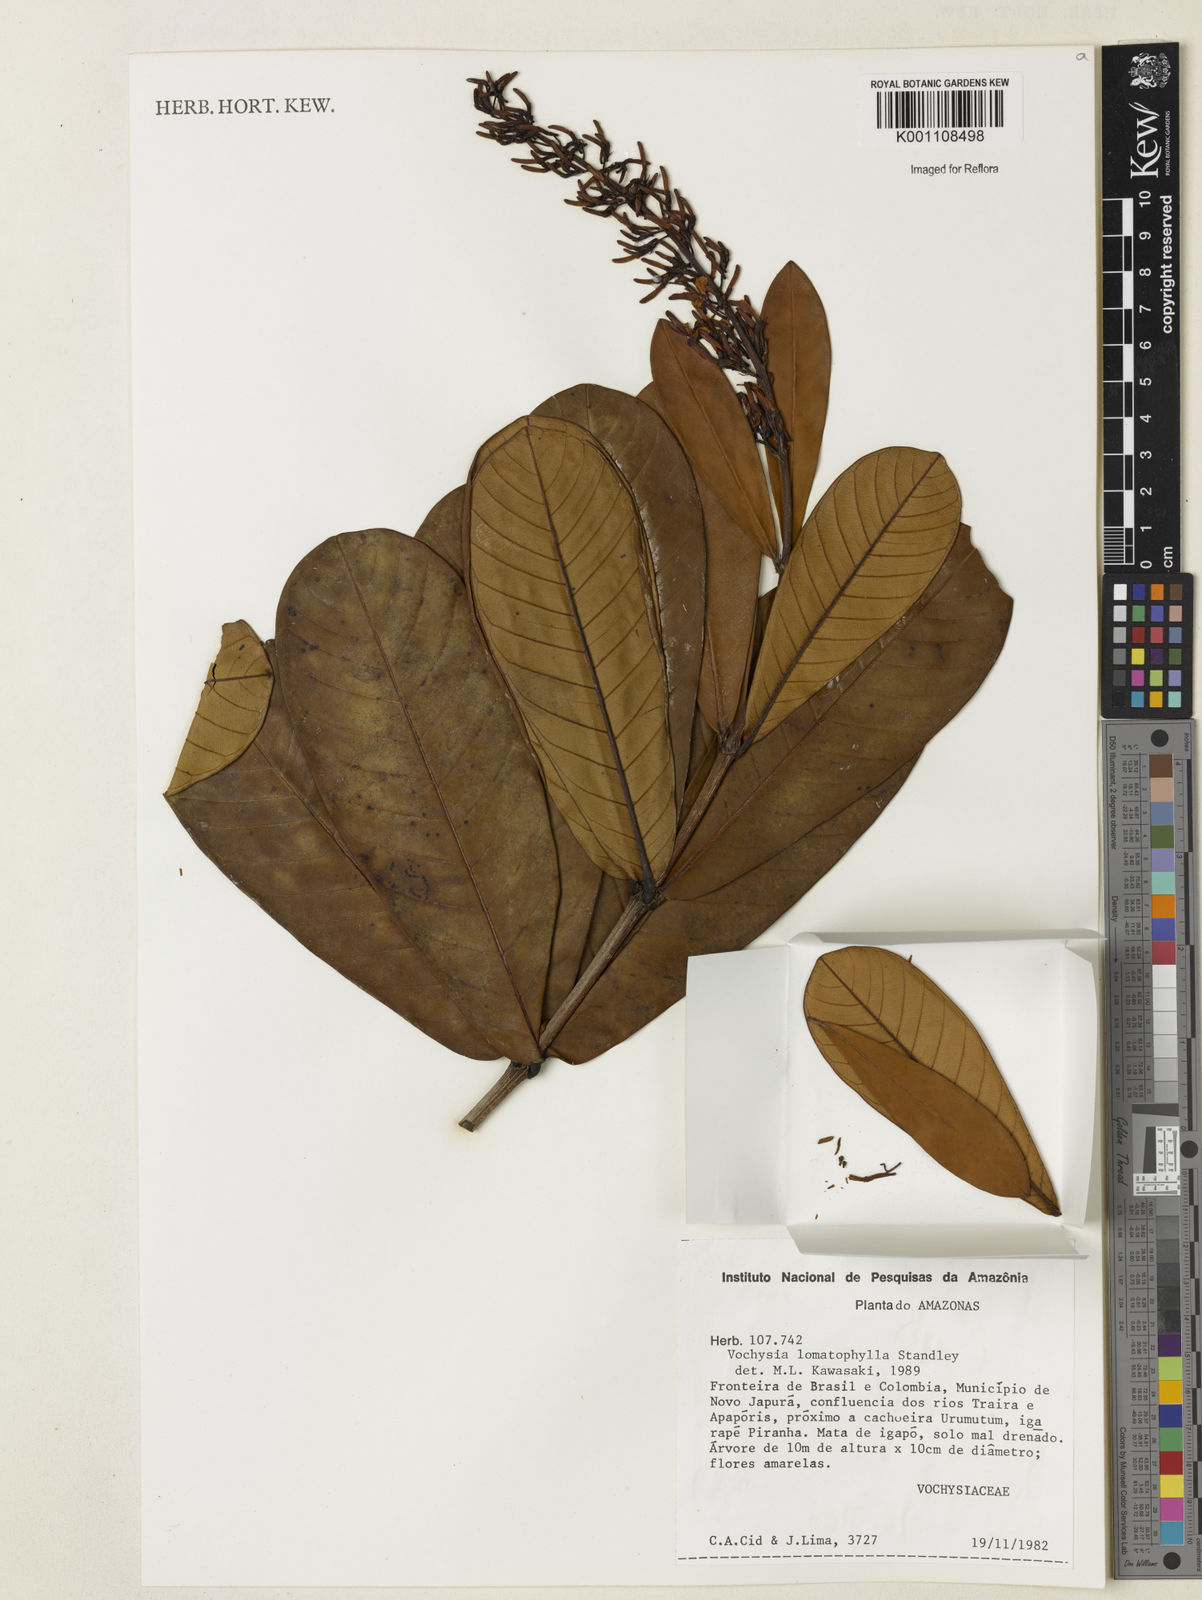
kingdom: Plantae
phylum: Tracheophyta
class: Magnoliopsida
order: Myrtales
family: Vochysiaceae
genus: Vochysia
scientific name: Vochysia lomatophylla
